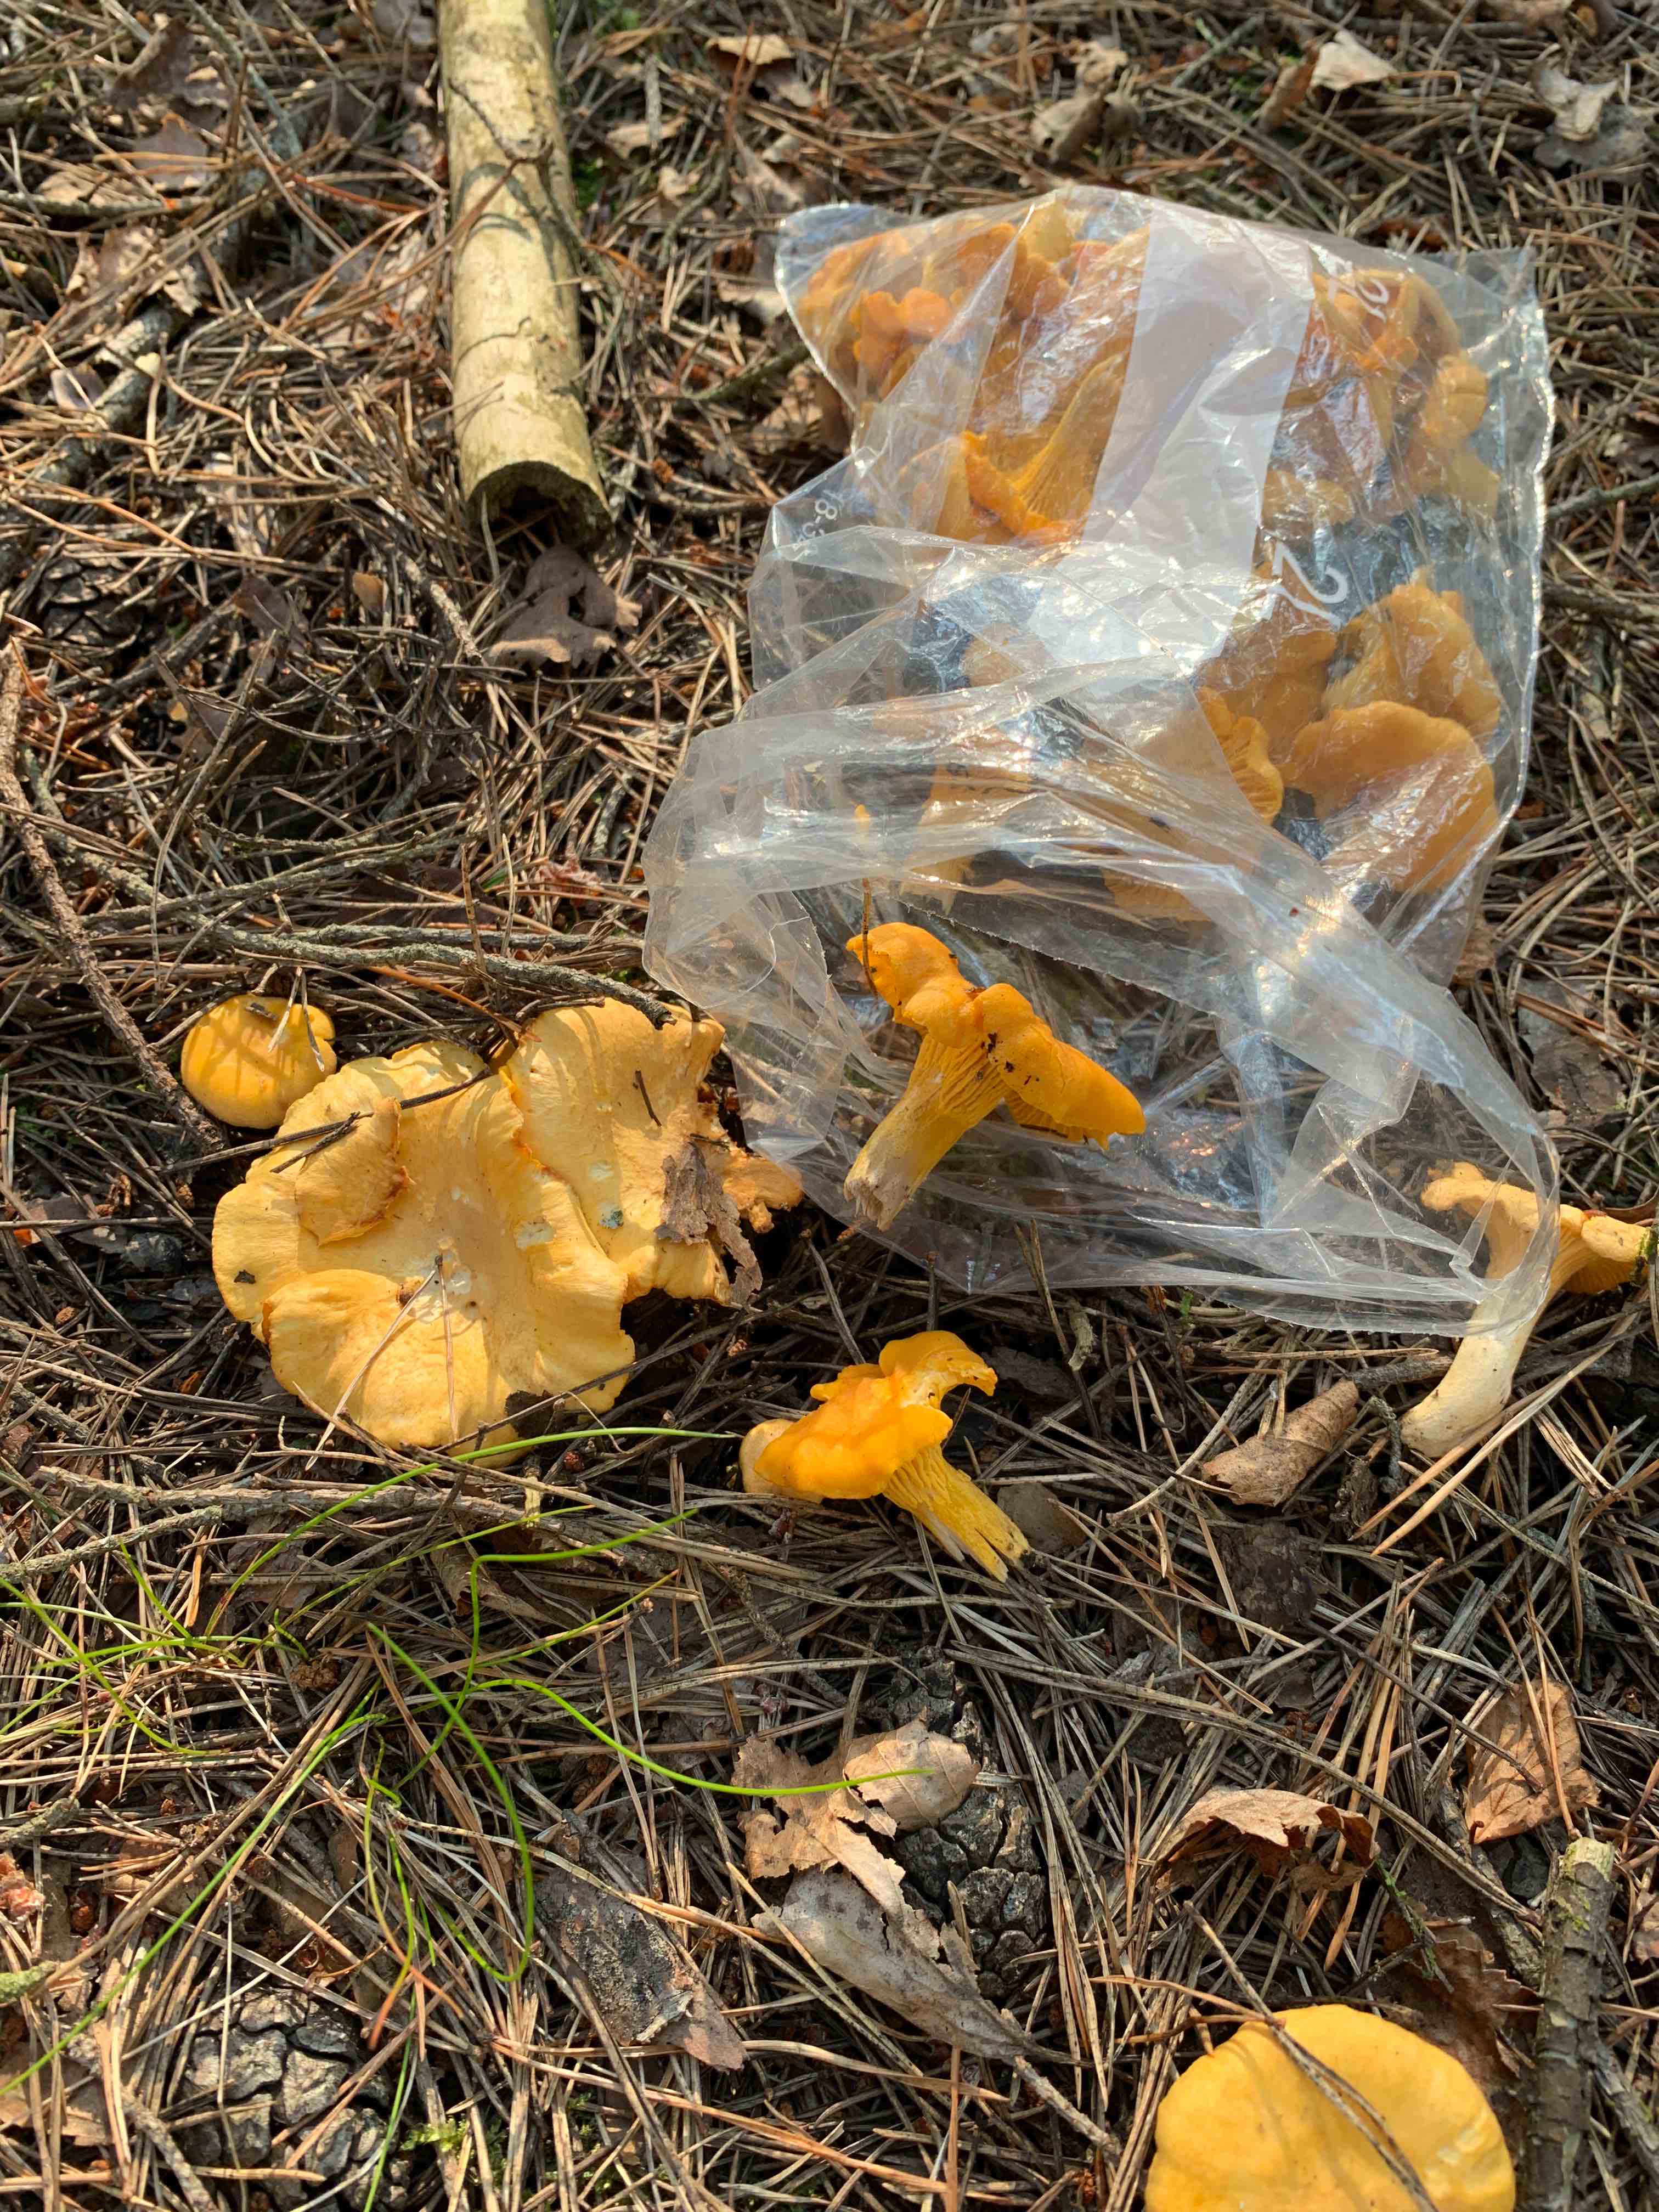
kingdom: Fungi
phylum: Basidiomycota
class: Agaricomycetes
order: Cantharellales
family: Hydnaceae
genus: Cantharellus
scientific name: Cantharellus cibarius
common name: almindelig kantarel
